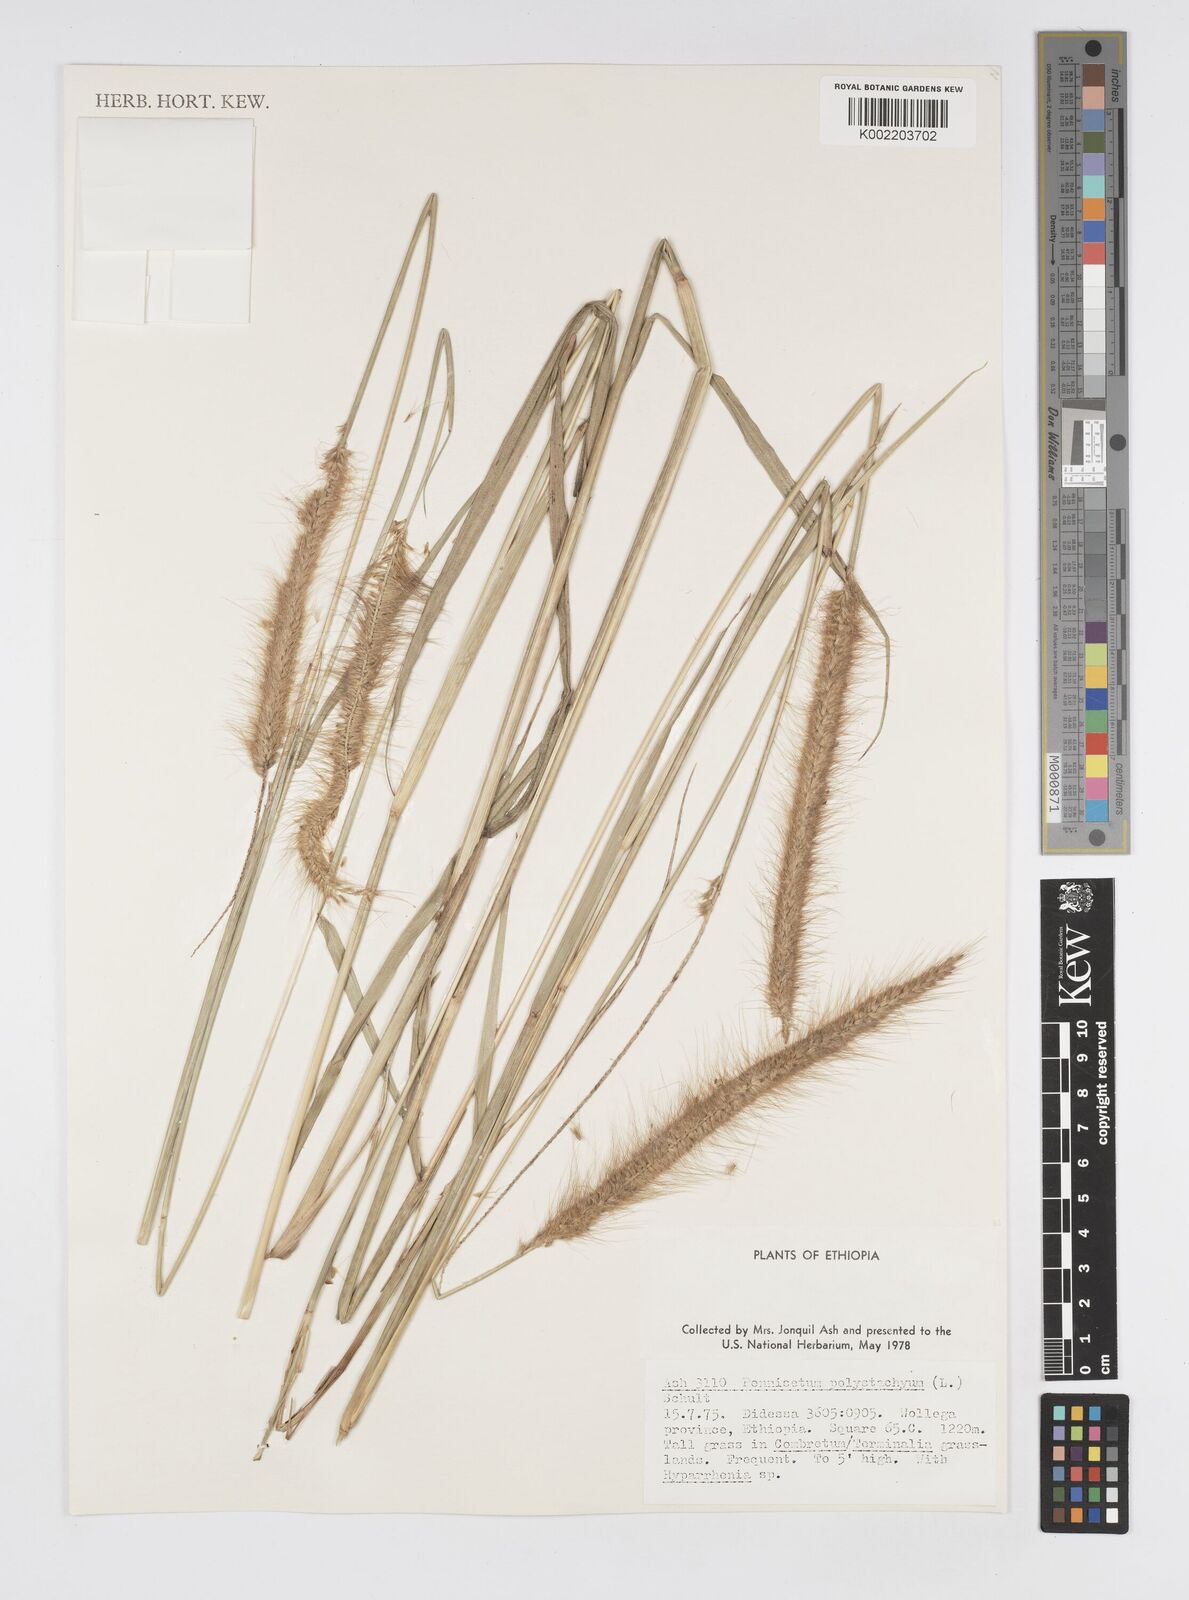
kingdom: Plantae
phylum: Tracheophyta
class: Liliopsida
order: Poales
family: Poaceae
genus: Setaria
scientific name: Setaria parviflora
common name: Knotroot bristle-grass
